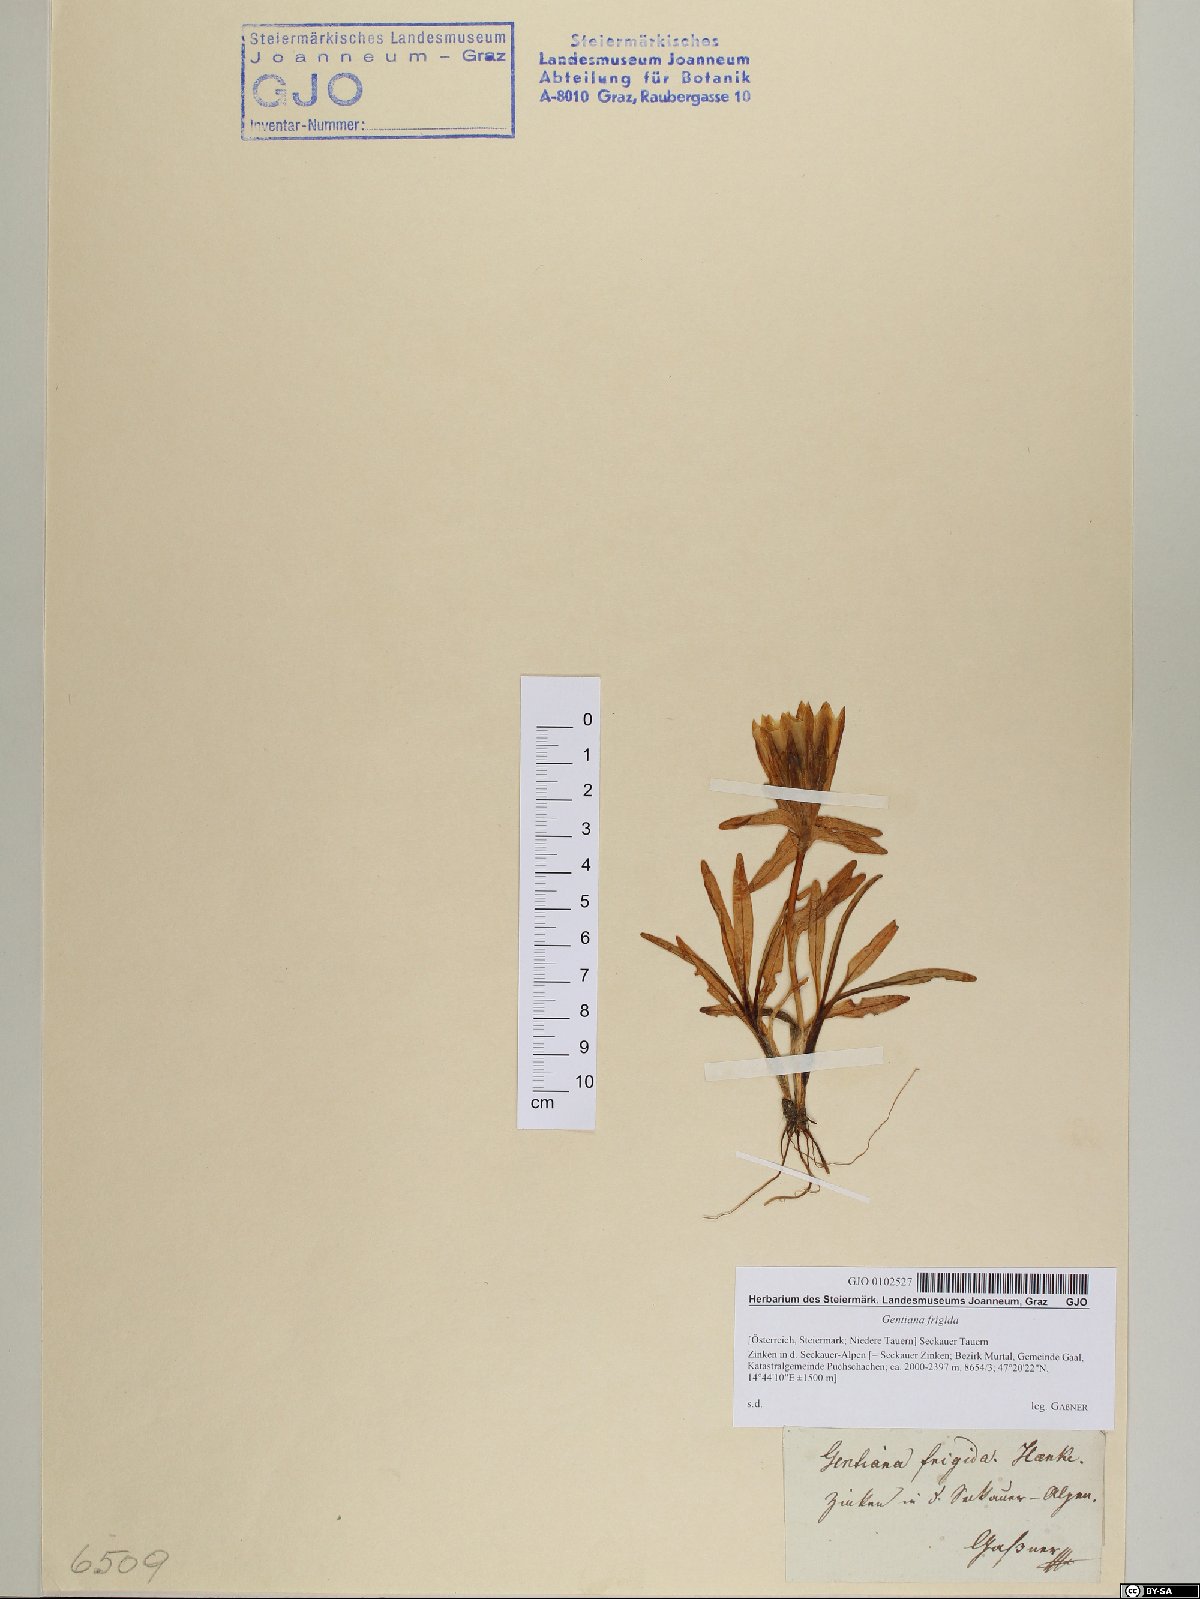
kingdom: Plantae
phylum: Tracheophyta
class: Magnoliopsida
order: Gentianales
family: Gentianaceae
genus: Gentiana
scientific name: Gentiana frigida
